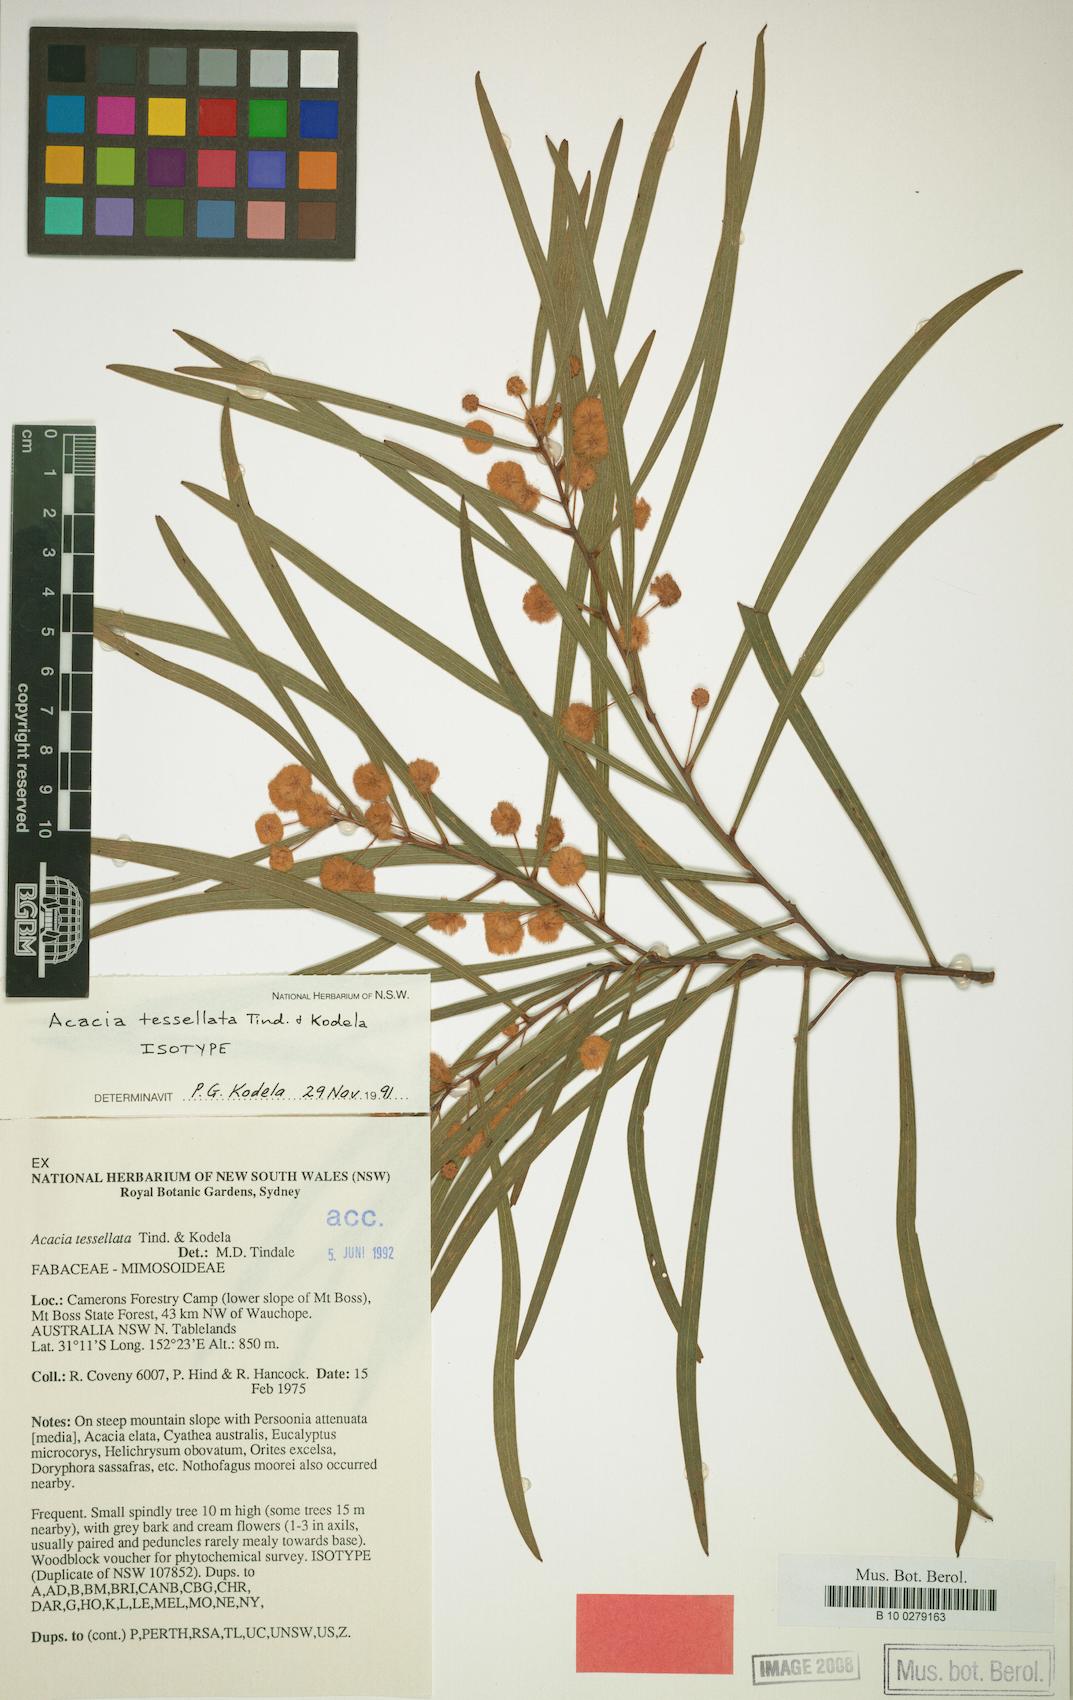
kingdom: Plantae
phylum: Tracheophyta
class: Magnoliopsida
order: Fabales
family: Fabaceae
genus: Acacia
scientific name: Acacia tessellata
